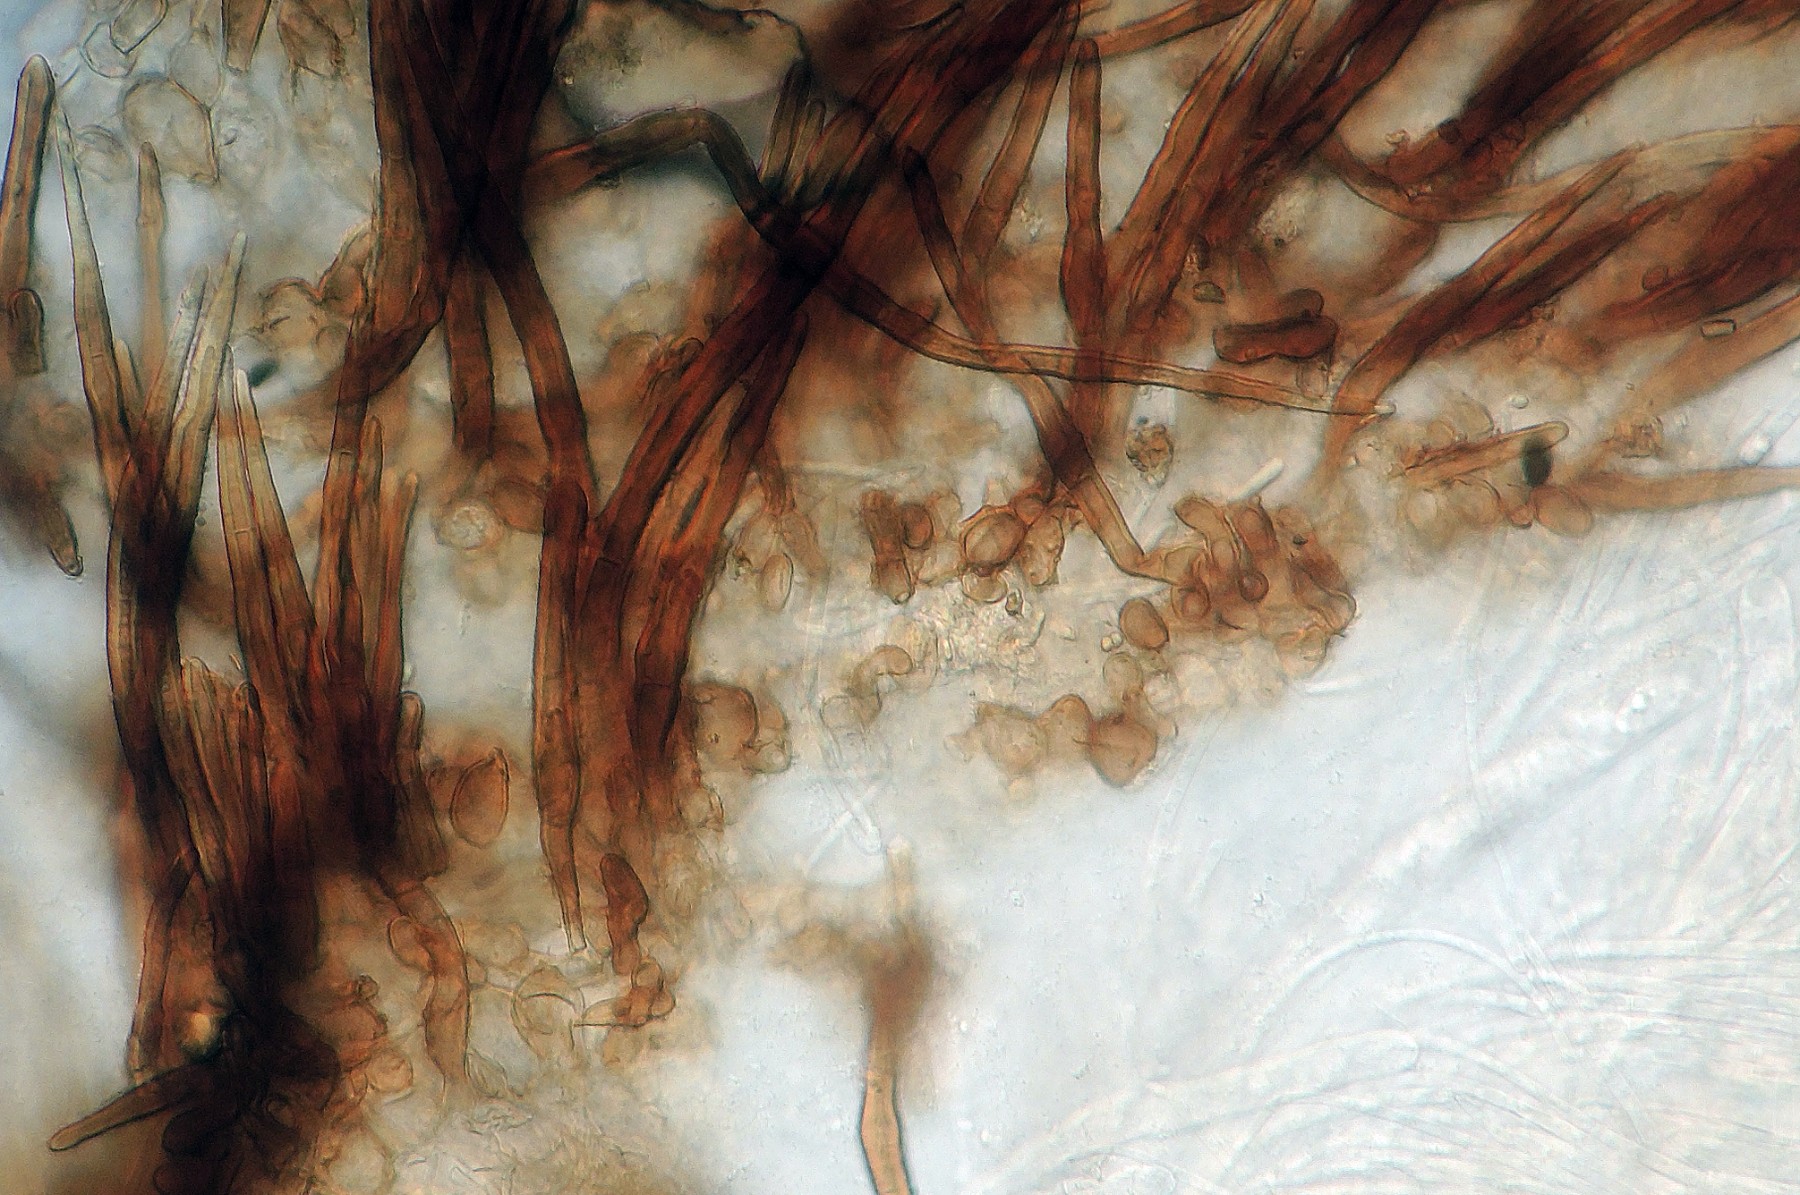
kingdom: Fungi
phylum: Ascomycota
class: Pezizomycetes
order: Pezizales
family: Pyronemataceae
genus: Trichophaea
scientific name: Trichophaea gregaria
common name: tensporet børstebæger
